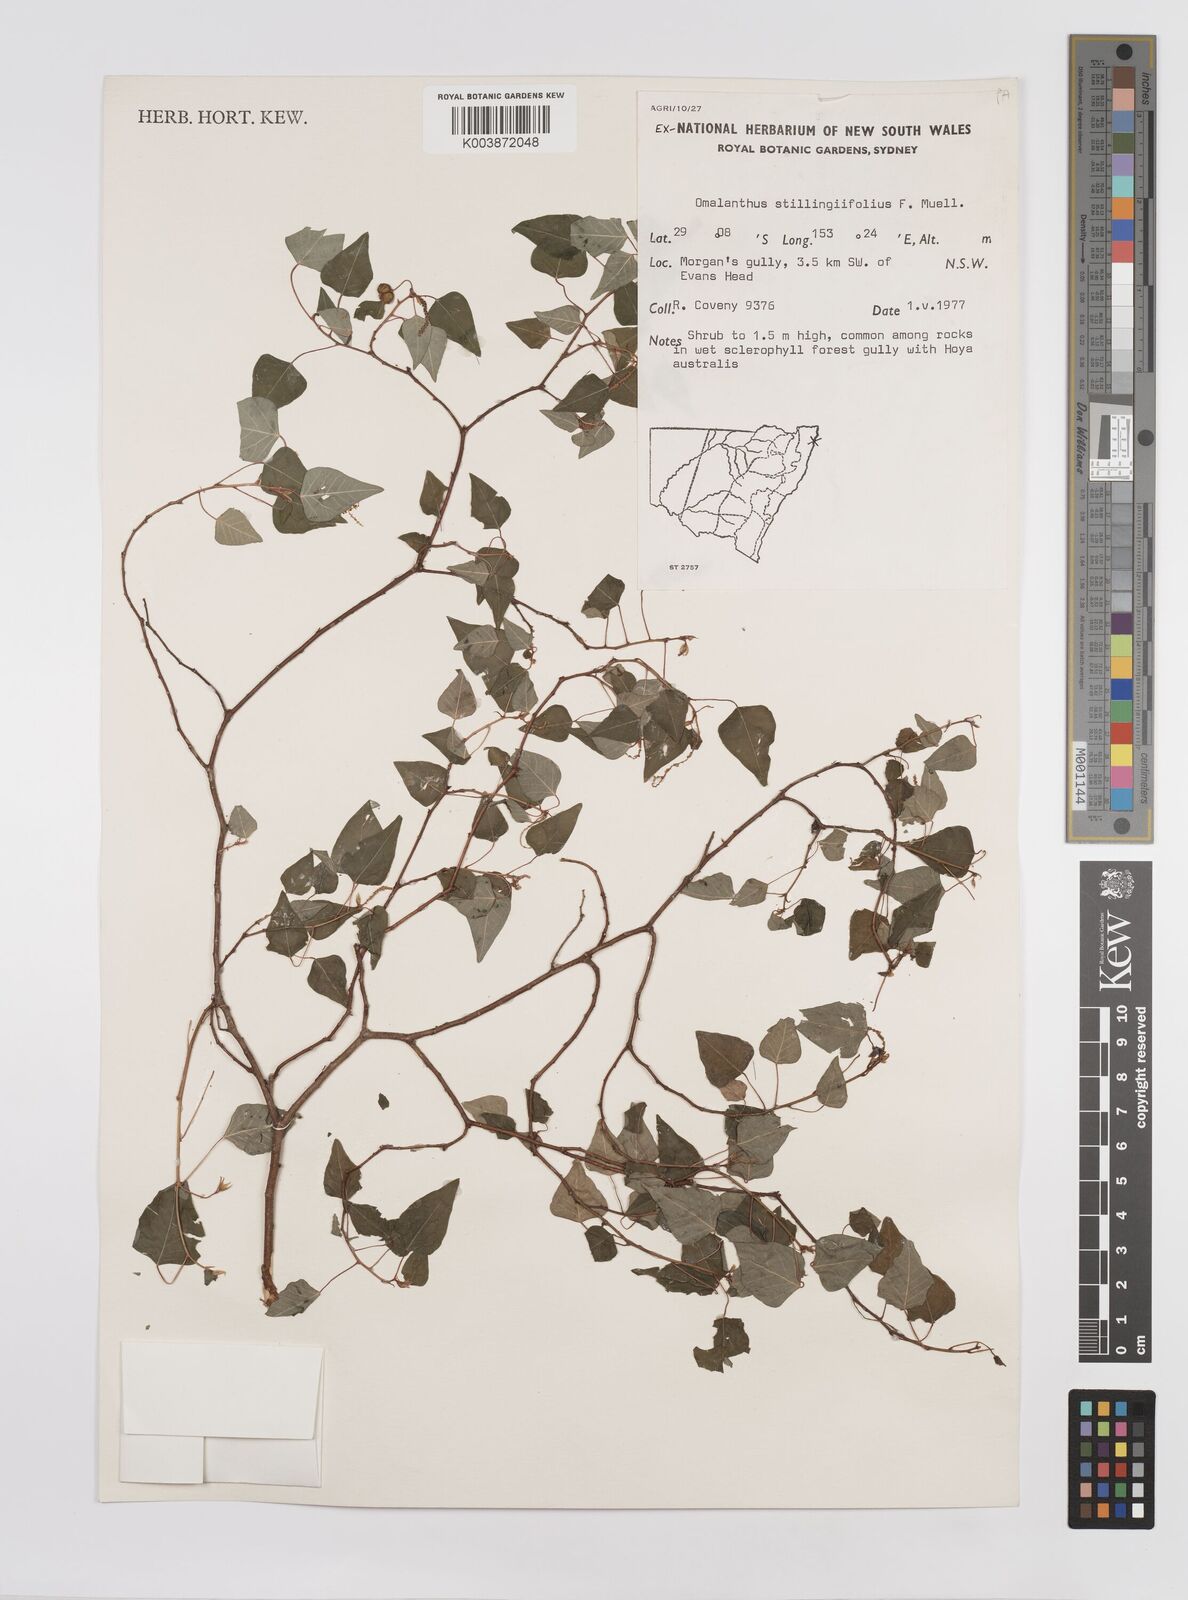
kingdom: Plantae
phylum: Tracheophyta
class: Magnoliopsida
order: Malpighiales
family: Euphorbiaceae
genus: Homalanthus
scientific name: Homalanthus stillingifolius
